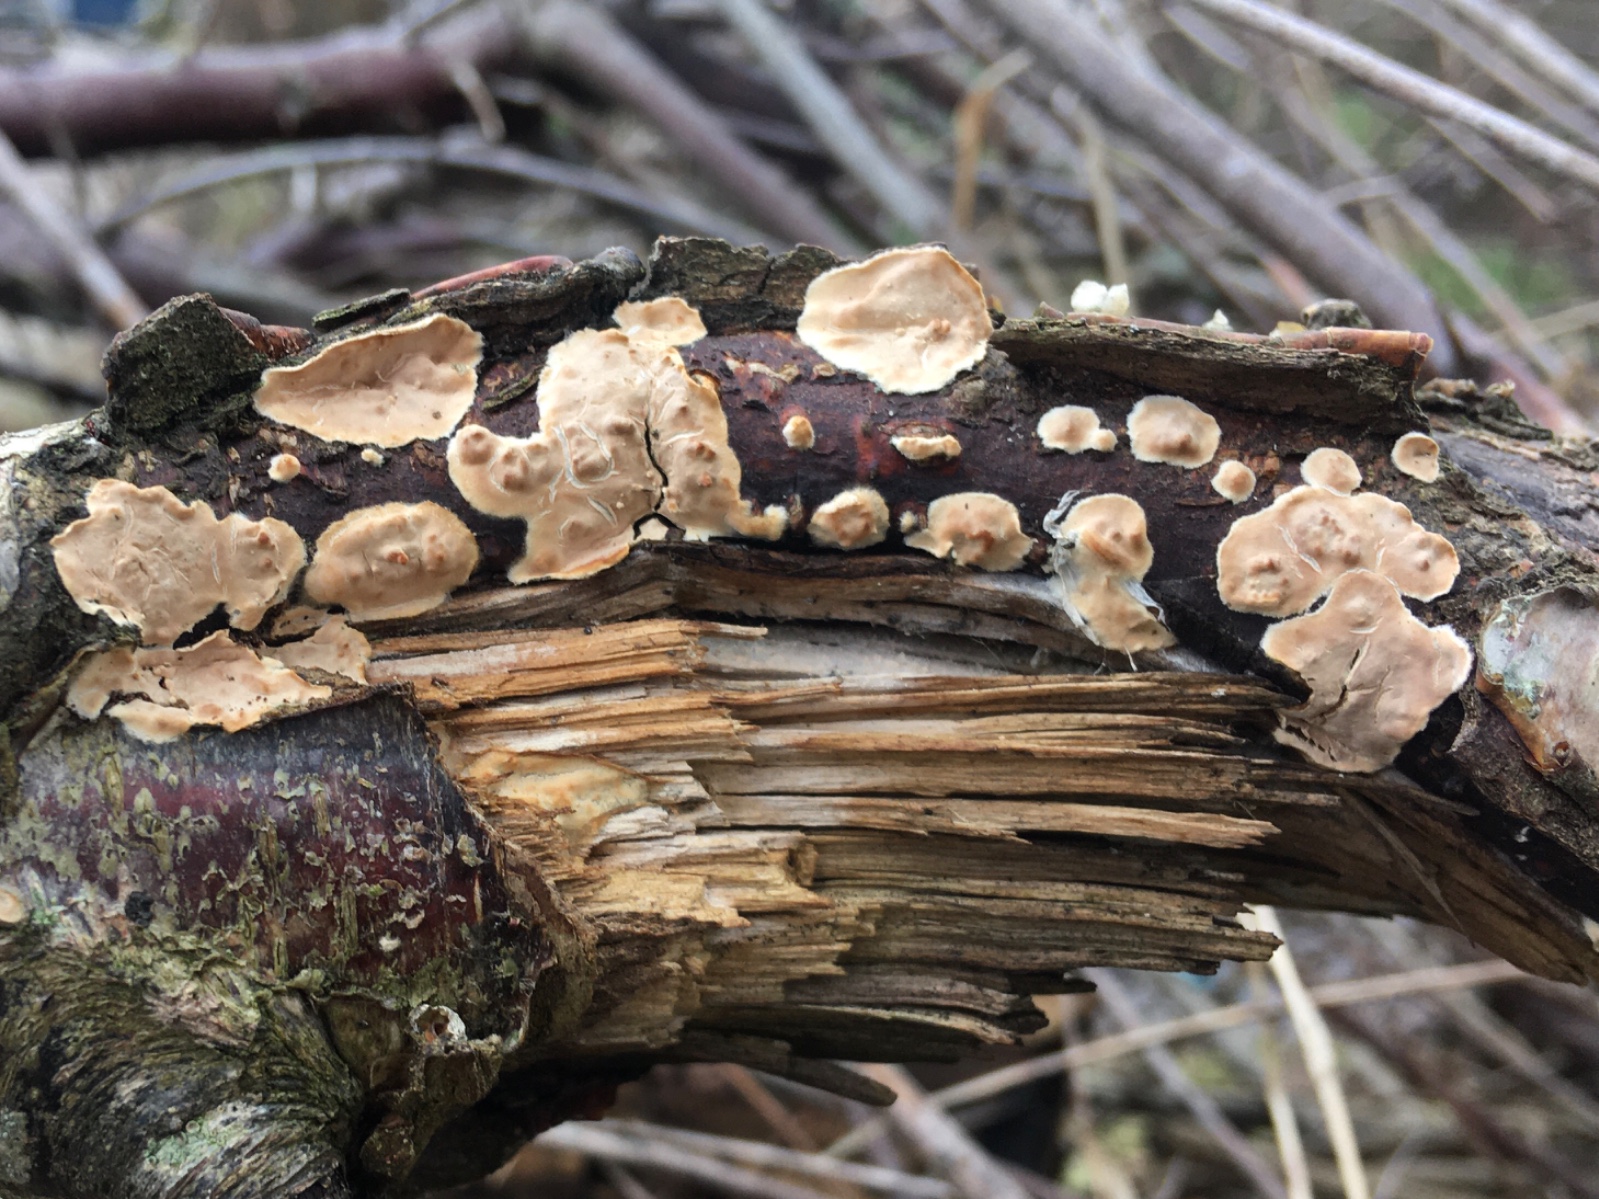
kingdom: Fungi
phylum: Basidiomycota
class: Agaricomycetes
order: Agaricales
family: Physalacriaceae
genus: Cylindrobasidium
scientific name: Cylindrobasidium evolvens
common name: sprækkehinde
